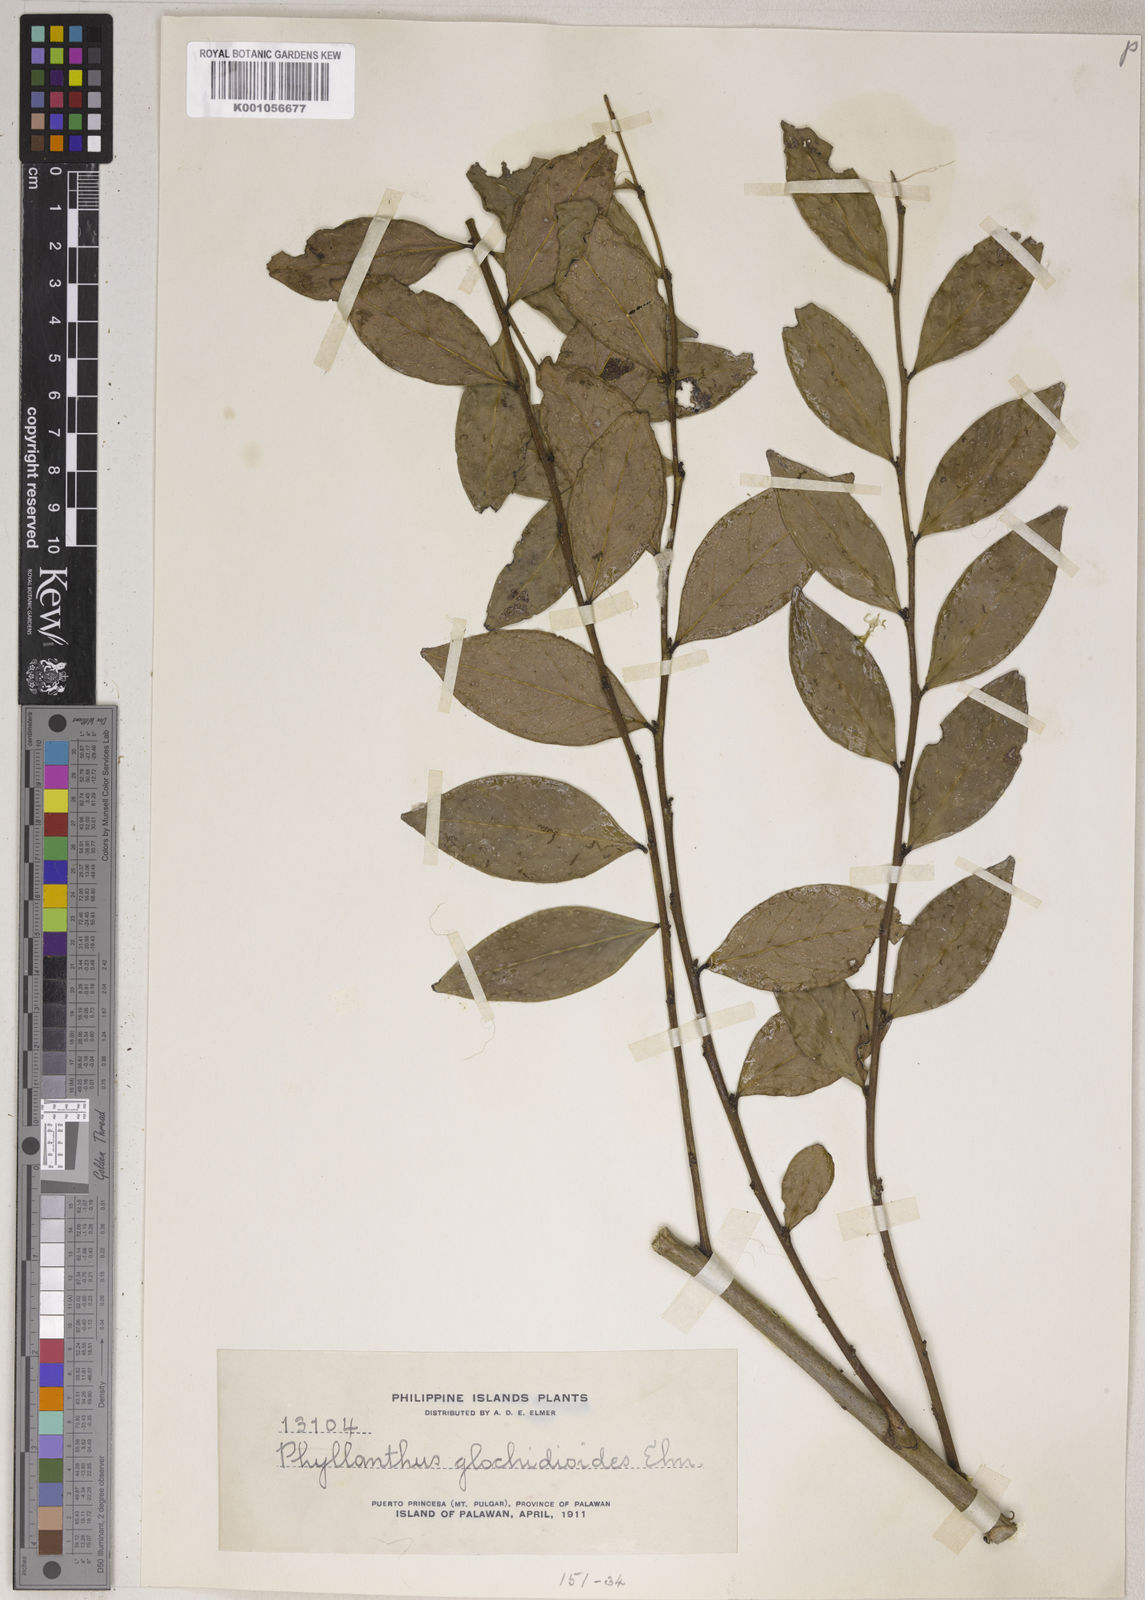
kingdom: Plantae
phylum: Tracheophyta
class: Magnoliopsida
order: Malpighiales
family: Phyllanthaceae
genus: Phyllanthus
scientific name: Phyllanthus glochidioides
